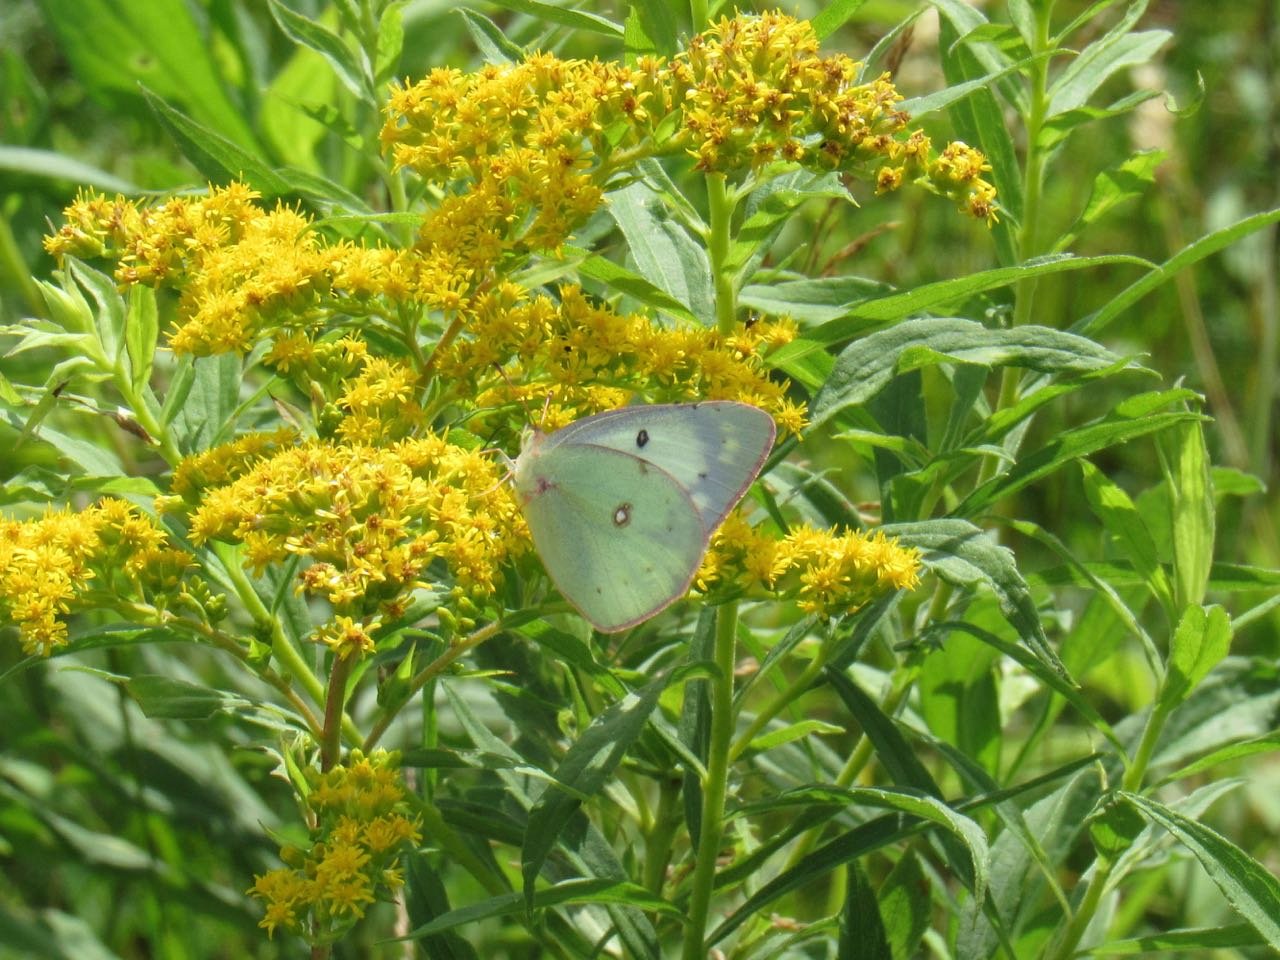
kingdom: Animalia
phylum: Arthropoda
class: Insecta
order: Lepidoptera
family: Pieridae
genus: Colias
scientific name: Colias philodice
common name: Clouded Sulphur
